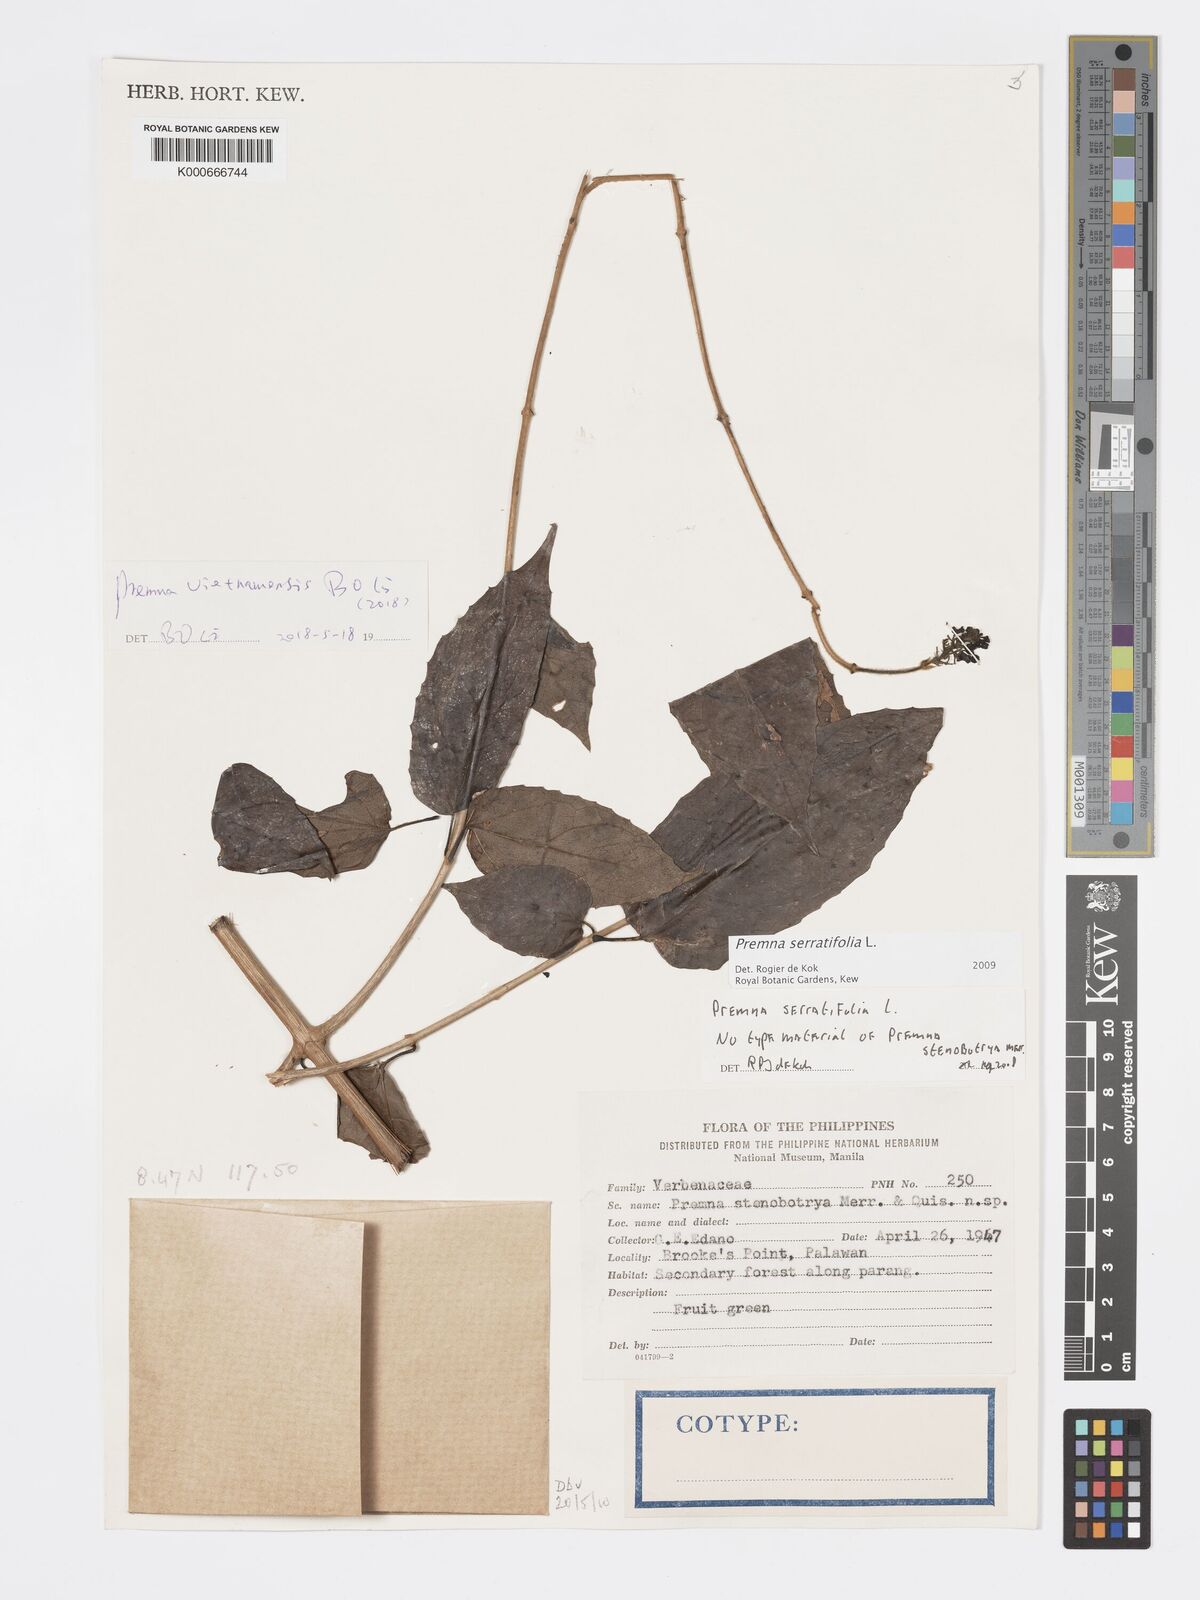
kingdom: Plantae
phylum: Tracheophyta
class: Magnoliopsida
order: Lamiales
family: Lamiaceae
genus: Premna
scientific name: Premna serratifolia
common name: Bastard guelder
